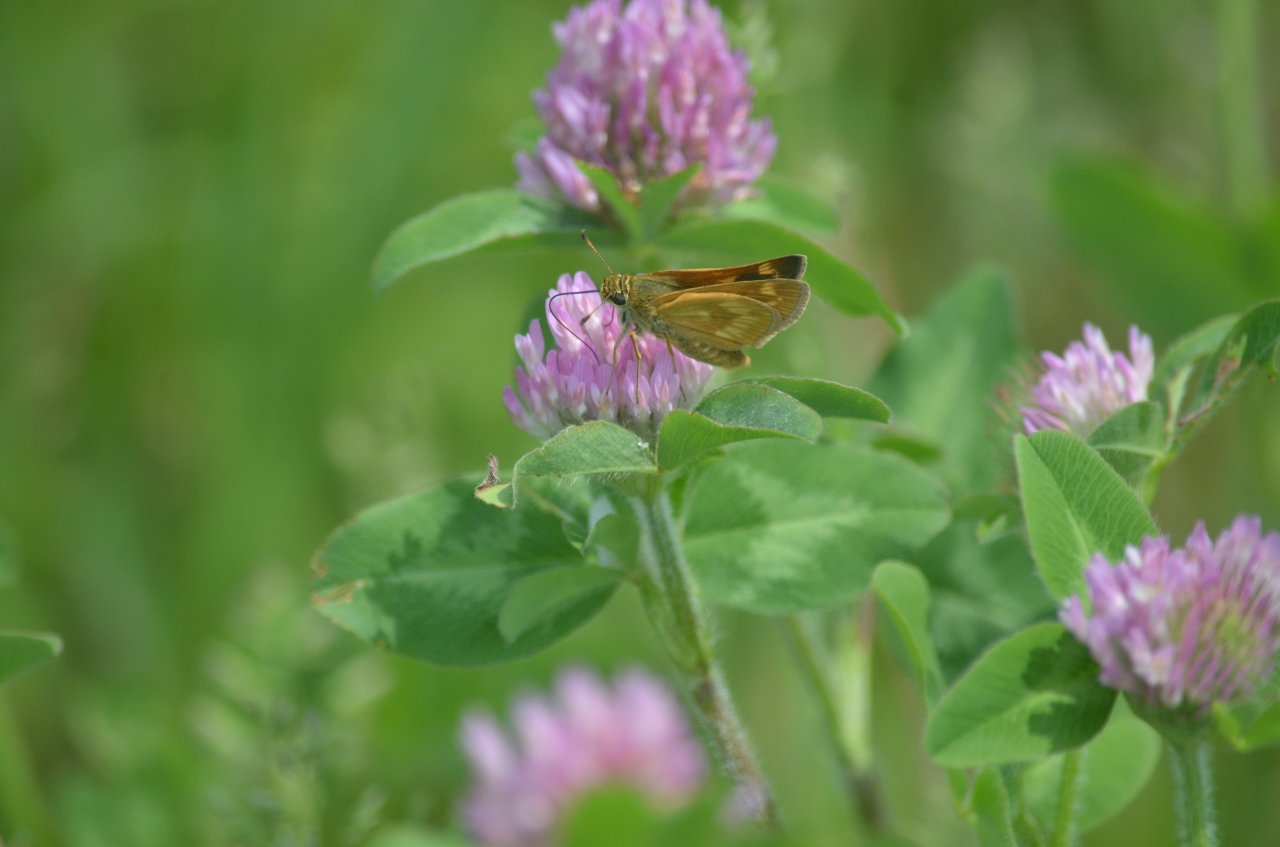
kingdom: Animalia
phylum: Arthropoda
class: Insecta
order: Lepidoptera
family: Hesperiidae
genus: Polites
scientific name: Polites
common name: Long Dash Skipper
